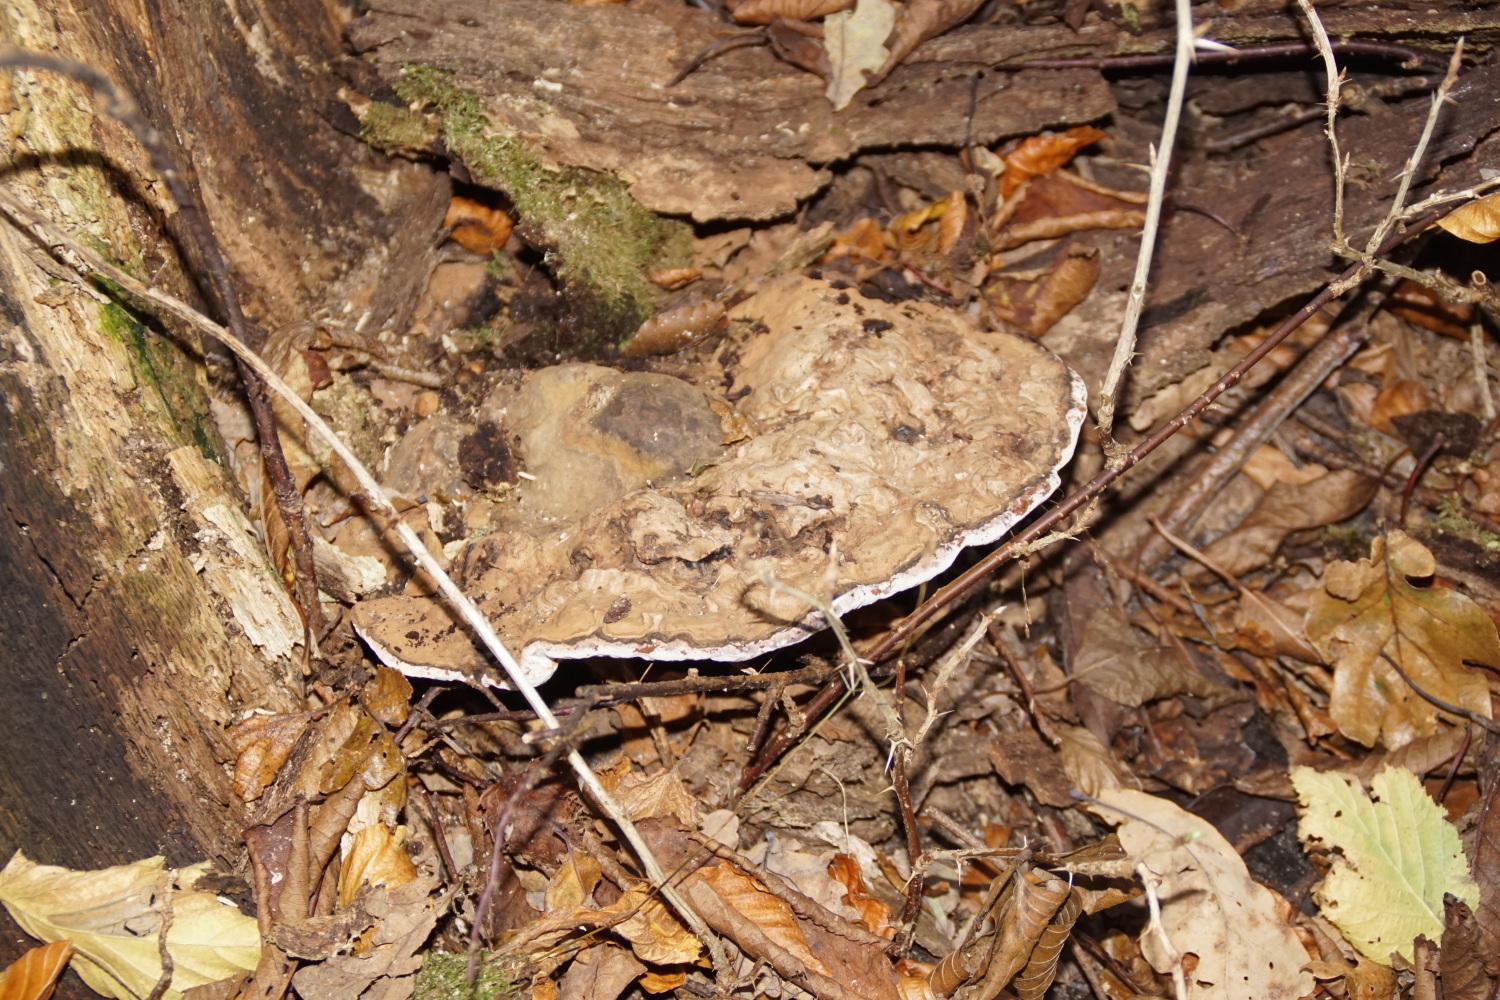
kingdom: Fungi
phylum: Basidiomycota
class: Agaricomycetes
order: Polyporales
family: Polyporaceae
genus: Ganoderma
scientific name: Ganoderma applanatum
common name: flad lakporesvamp
